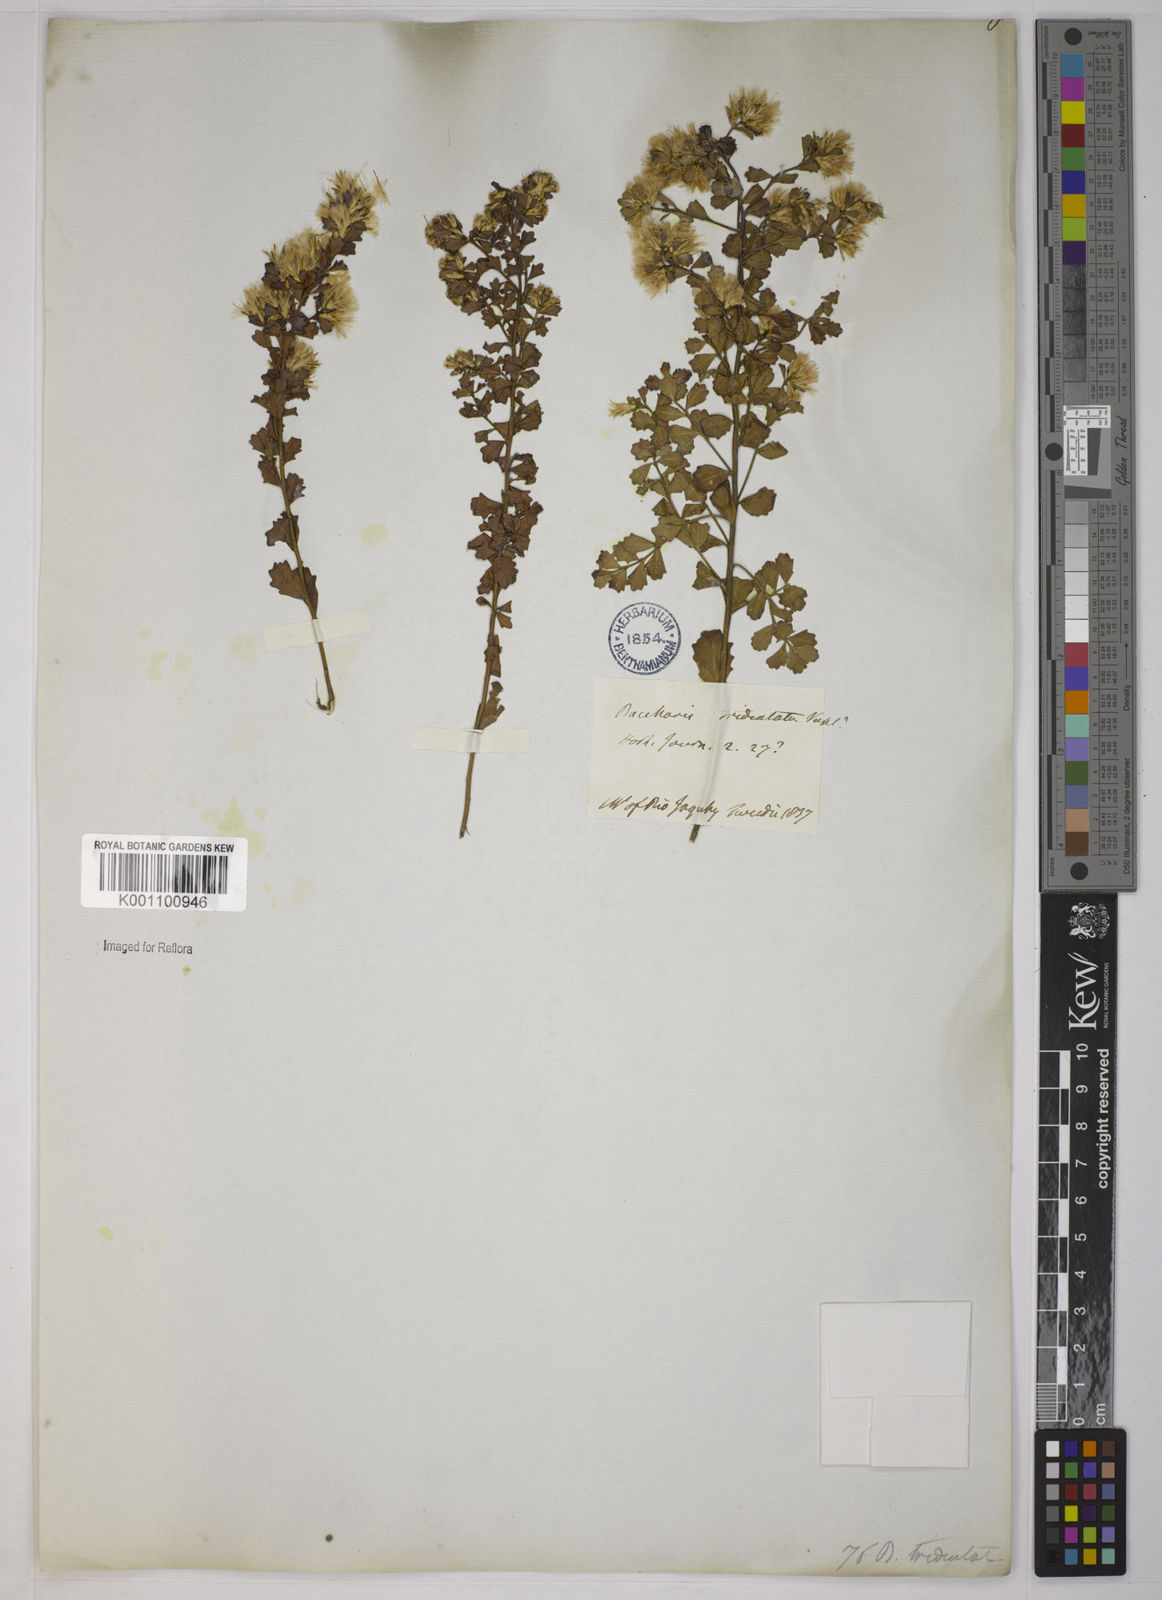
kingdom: Plantae
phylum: Tracheophyta
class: Magnoliopsida
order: Asterales
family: Asteraceae
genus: Baccharis
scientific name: Baccharis pauciflosculosa
